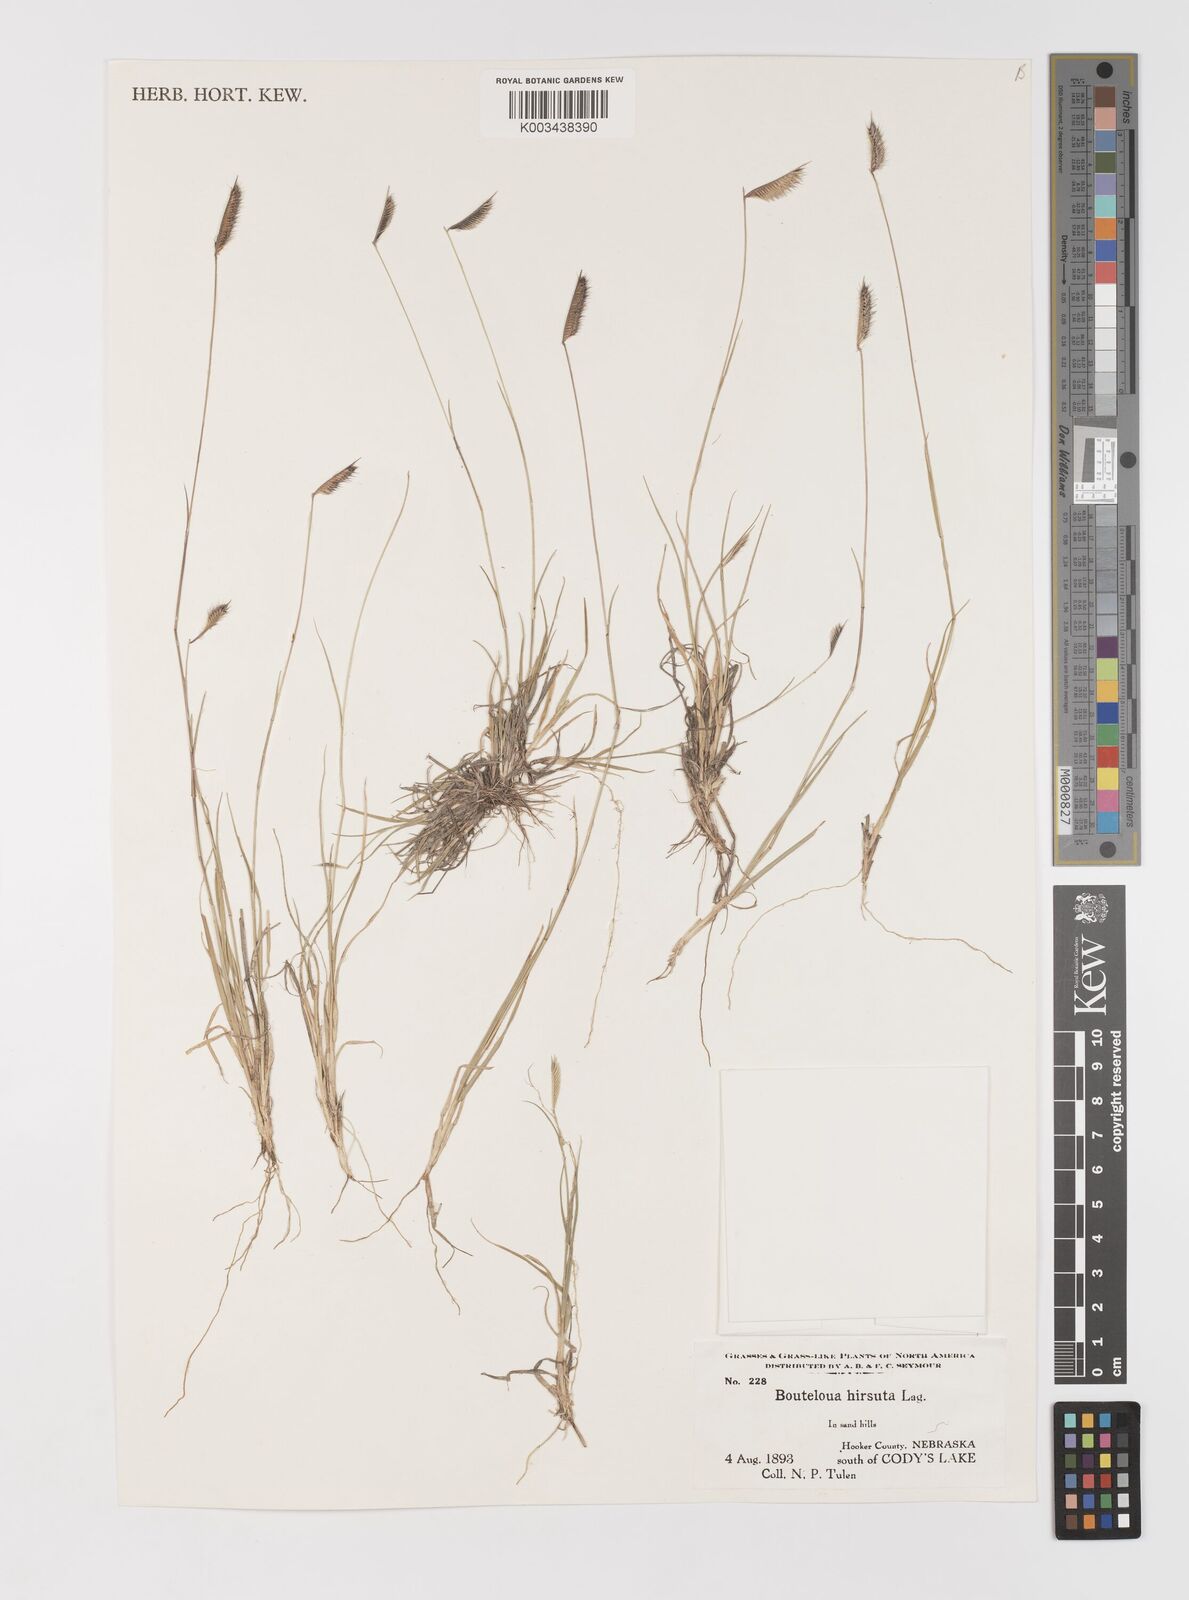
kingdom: Plantae
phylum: Tracheophyta
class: Liliopsida
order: Poales
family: Poaceae
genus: Bouteloua
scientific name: Bouteloua hirsuta
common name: Hairy grama
